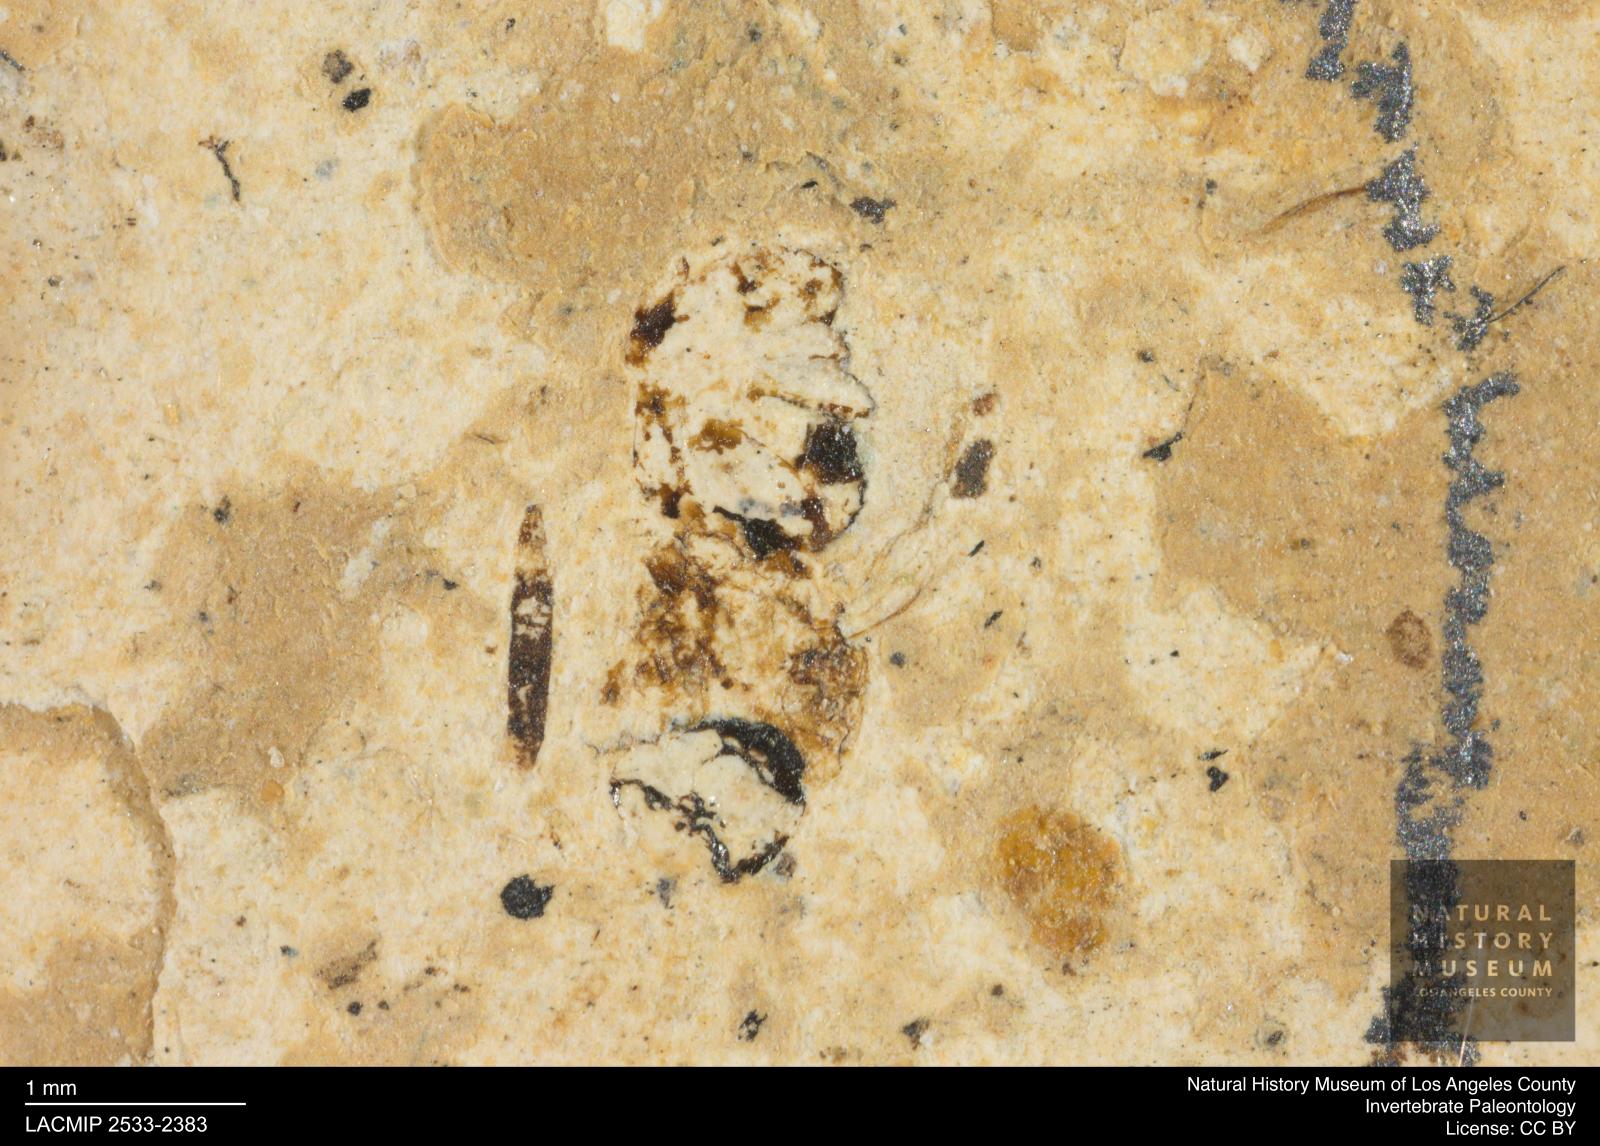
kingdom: Animalia
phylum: Arthropoda
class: Insecta
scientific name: Insecta
